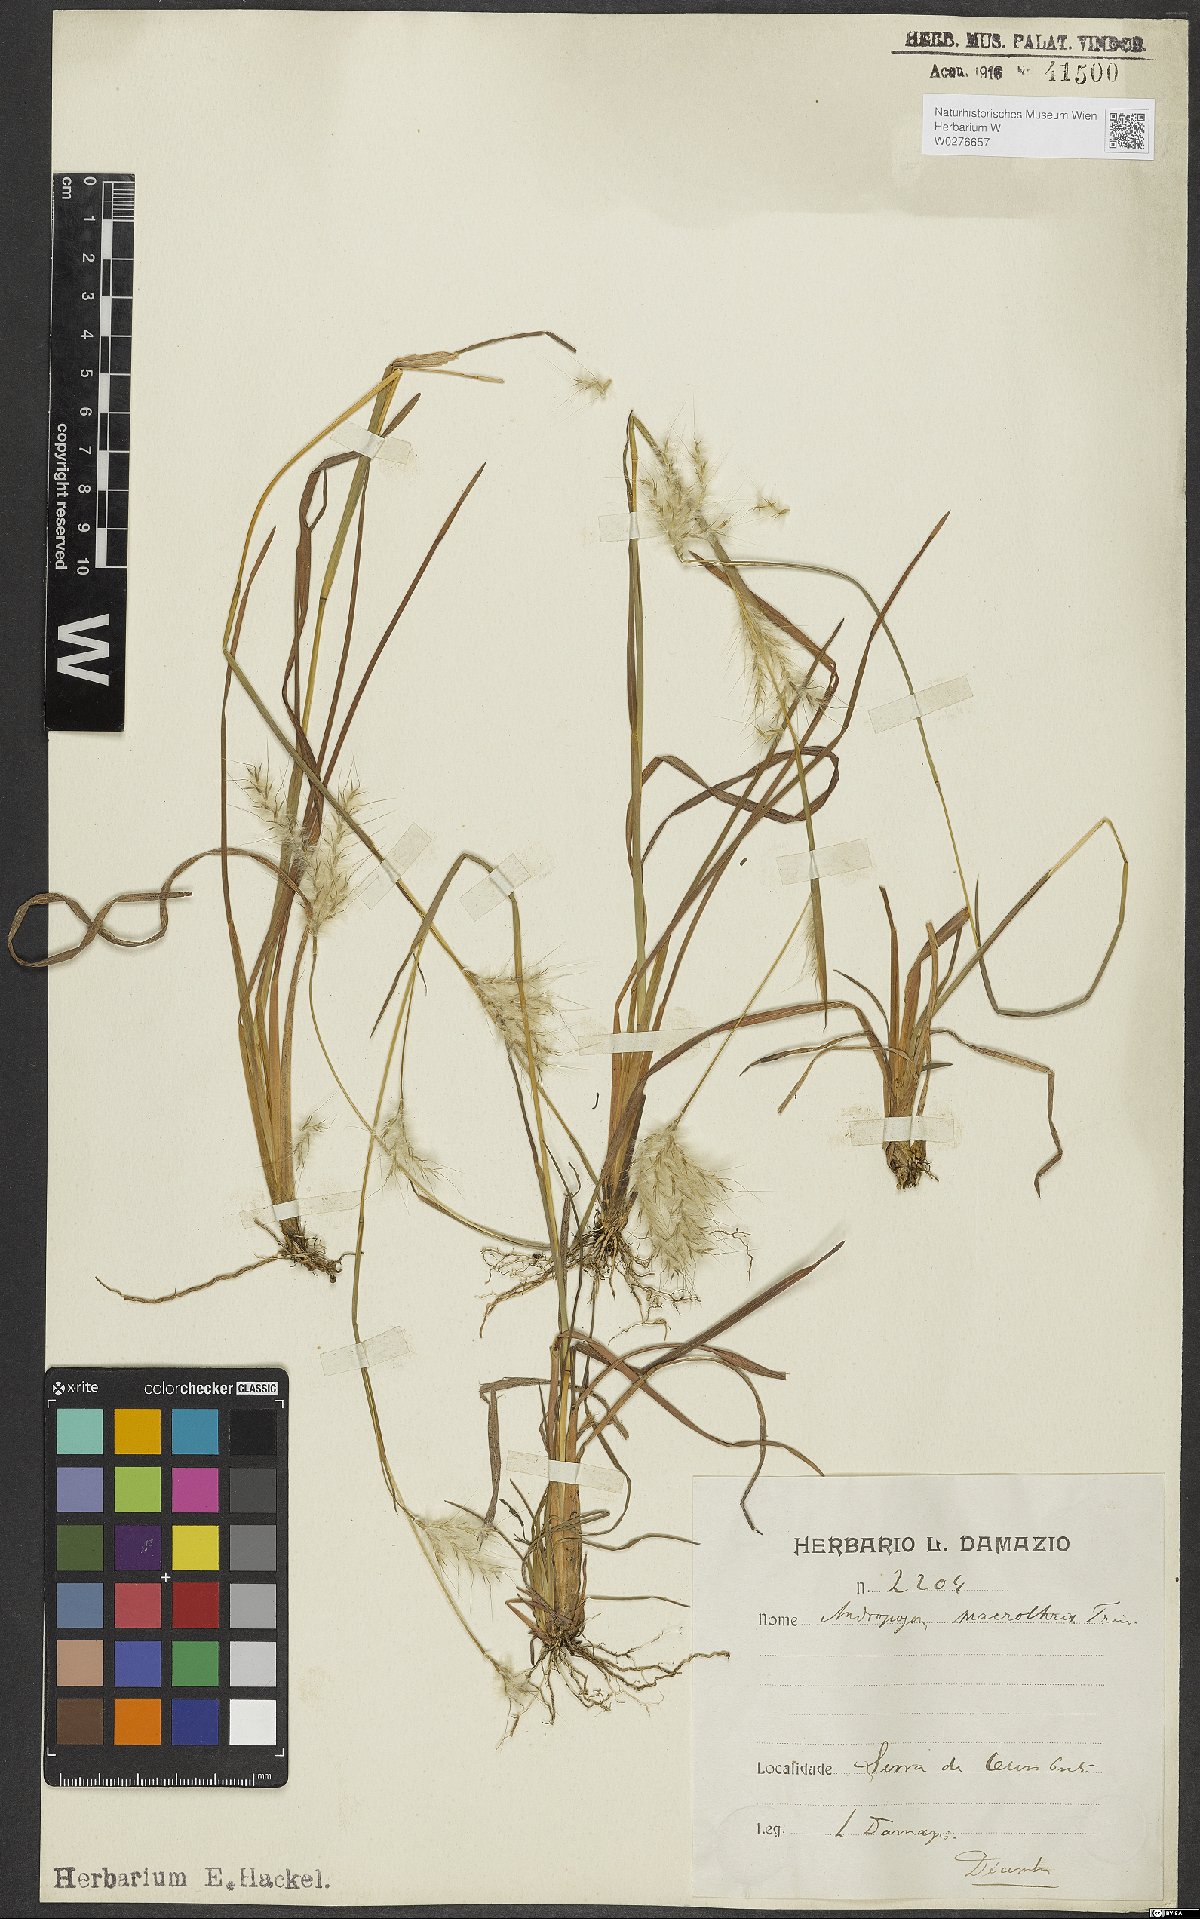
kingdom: Plantae
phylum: Tracheophyta
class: Liliopsida
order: Poales
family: Poaceae
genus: Andropogon
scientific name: Andropogon macrothrix
